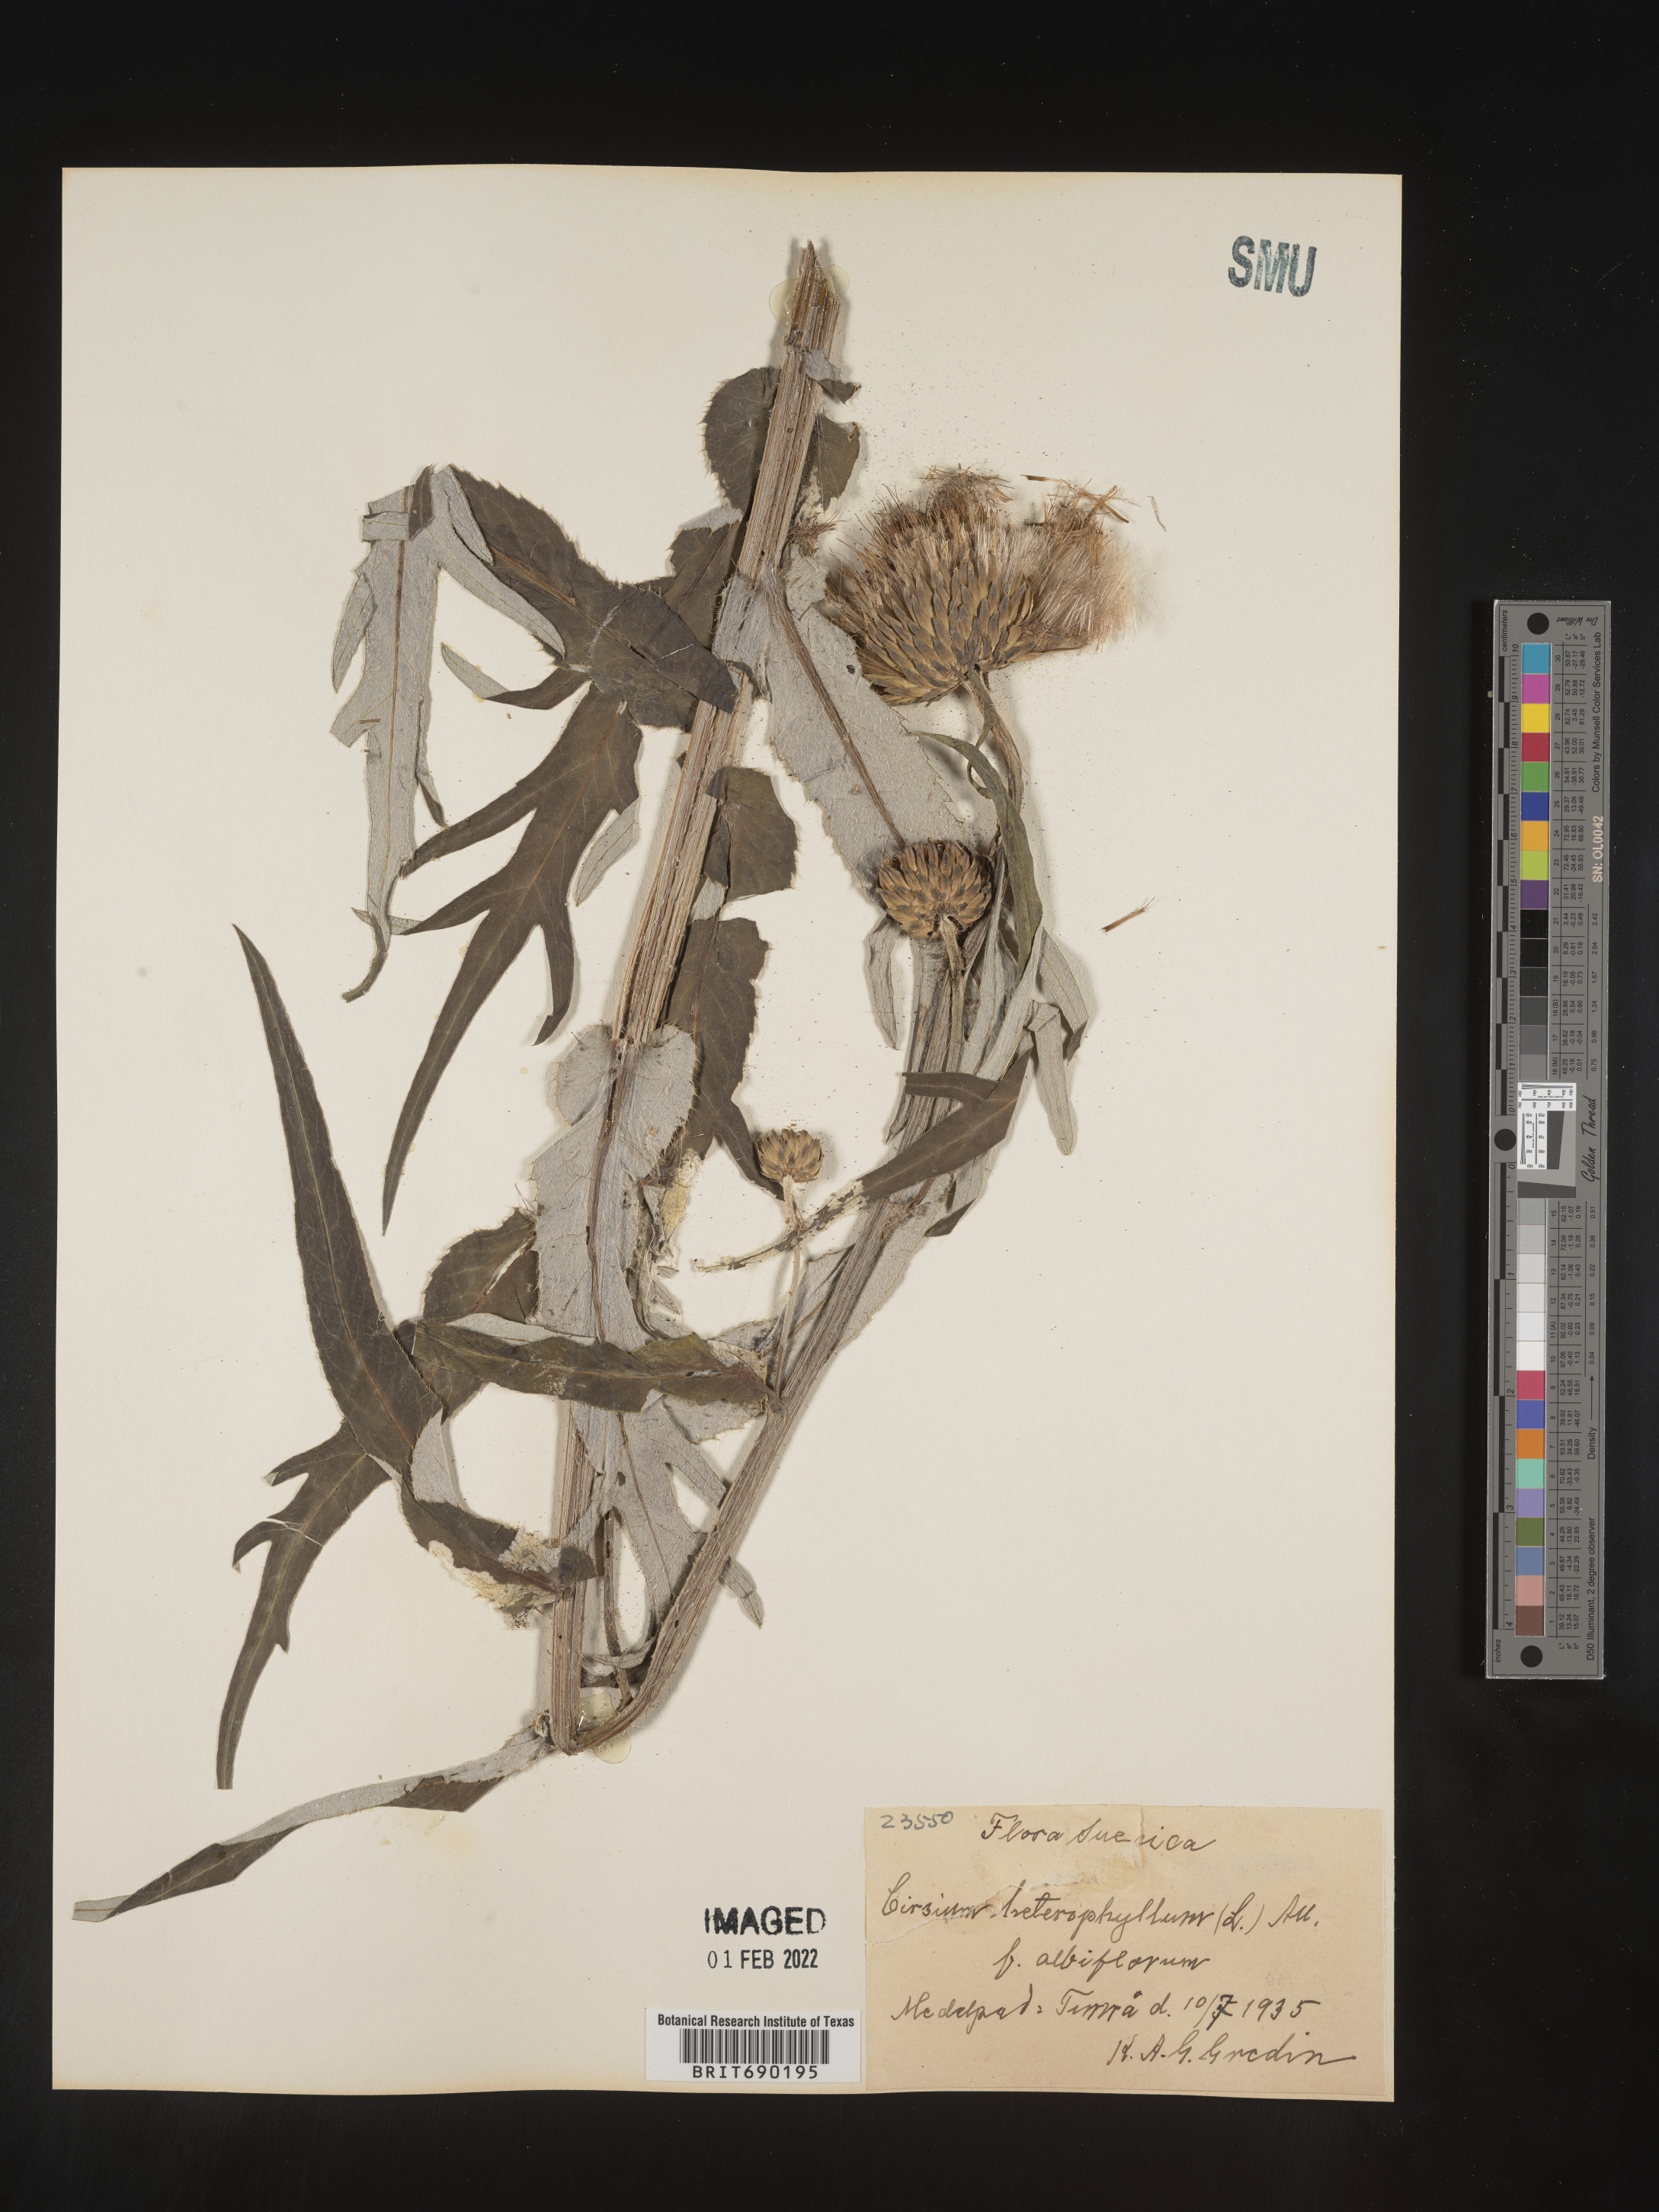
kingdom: Plantae
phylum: Tracheophyta
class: Magnoliopsida
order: Asterales
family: Asteraceae
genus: Cirsium
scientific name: Cirsium
